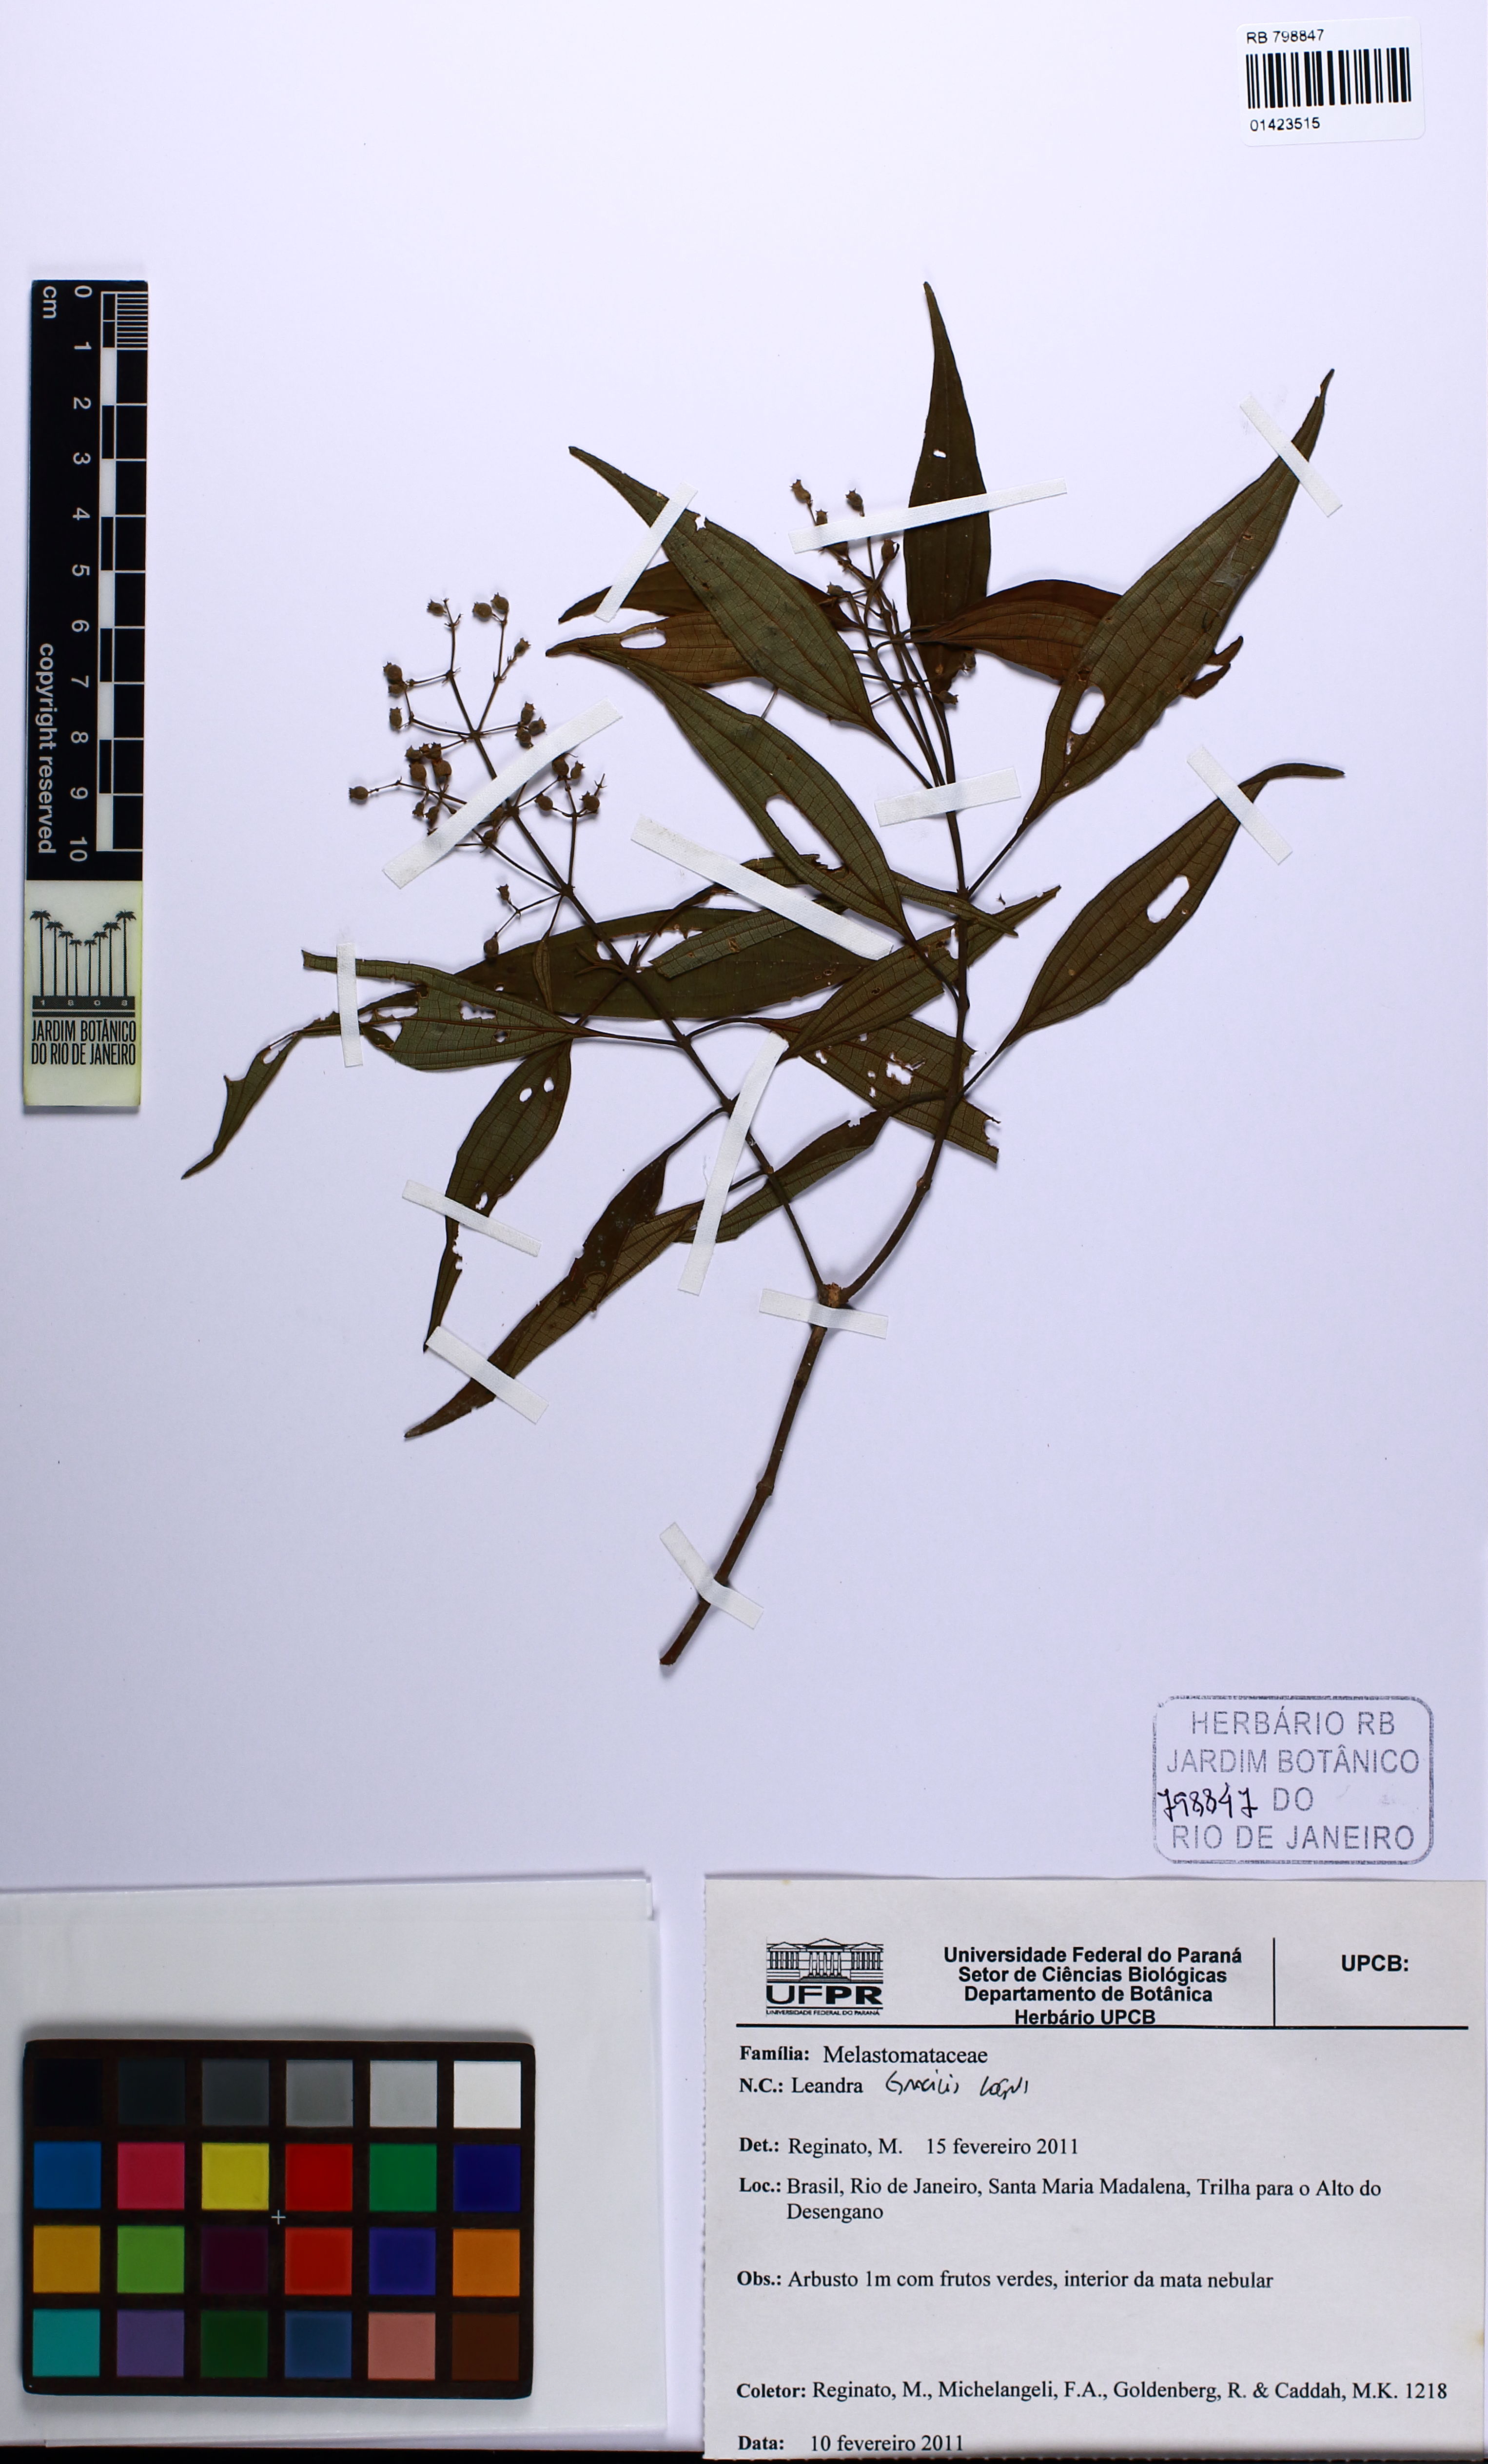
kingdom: Plantae
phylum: Tracheophyta
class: Magnoliopsida
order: Myrtales
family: Melastomataceae
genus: Miconia
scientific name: Miconia leagracilis
